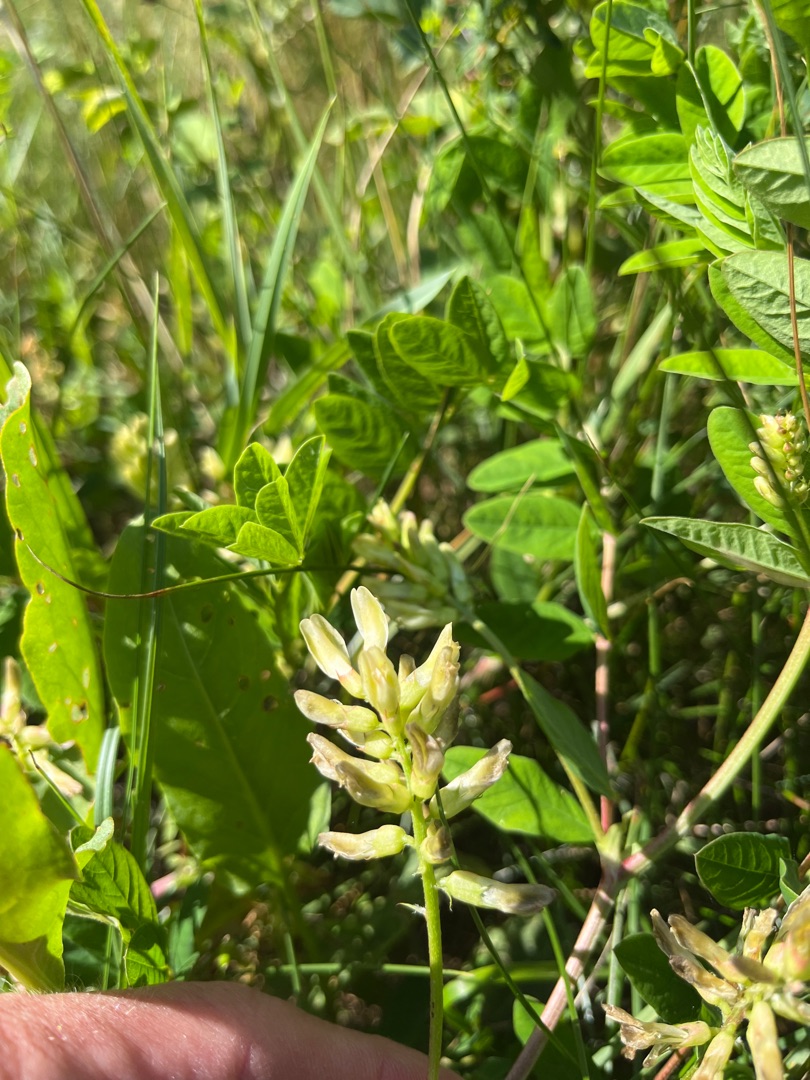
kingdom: Plantae
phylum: Tracheophyta
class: Magnoliopsida
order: Fabales
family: Fabaceae
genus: Astragalus
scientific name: Astragalus glycyphyllos
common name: Sød astragel
